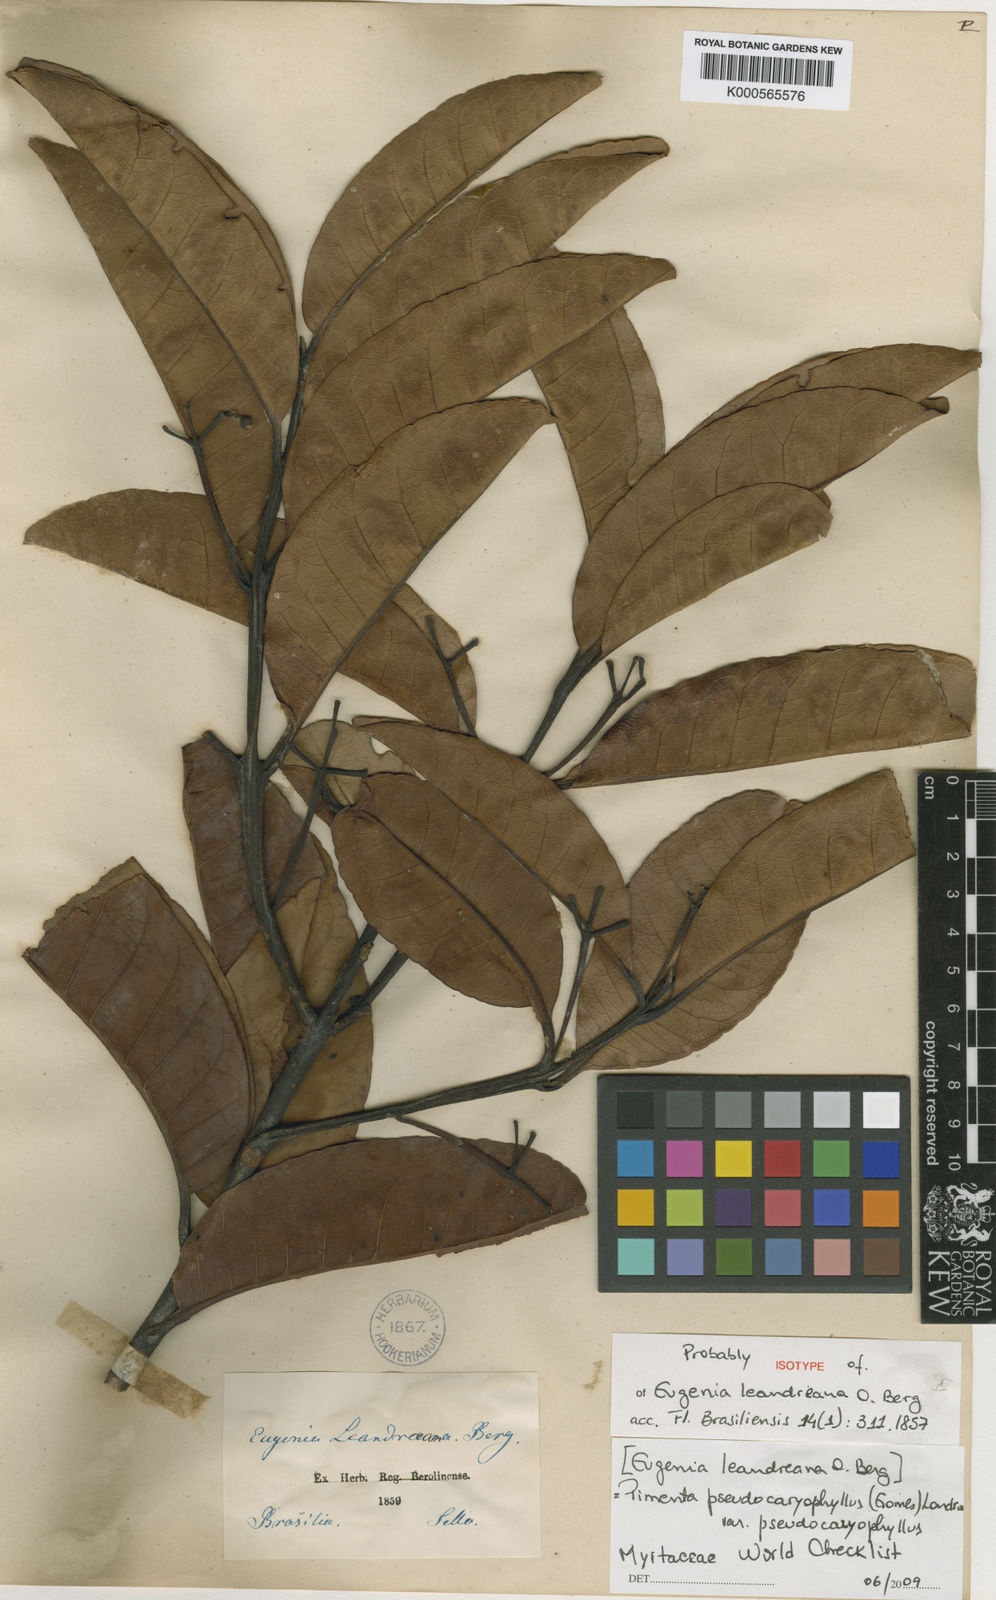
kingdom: Plantae
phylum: Tracheophyta
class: Magnoliopsida
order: Myrtales
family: Myrtaceae
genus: Pimenta
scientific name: Pimenta pseudocaryophyllus
